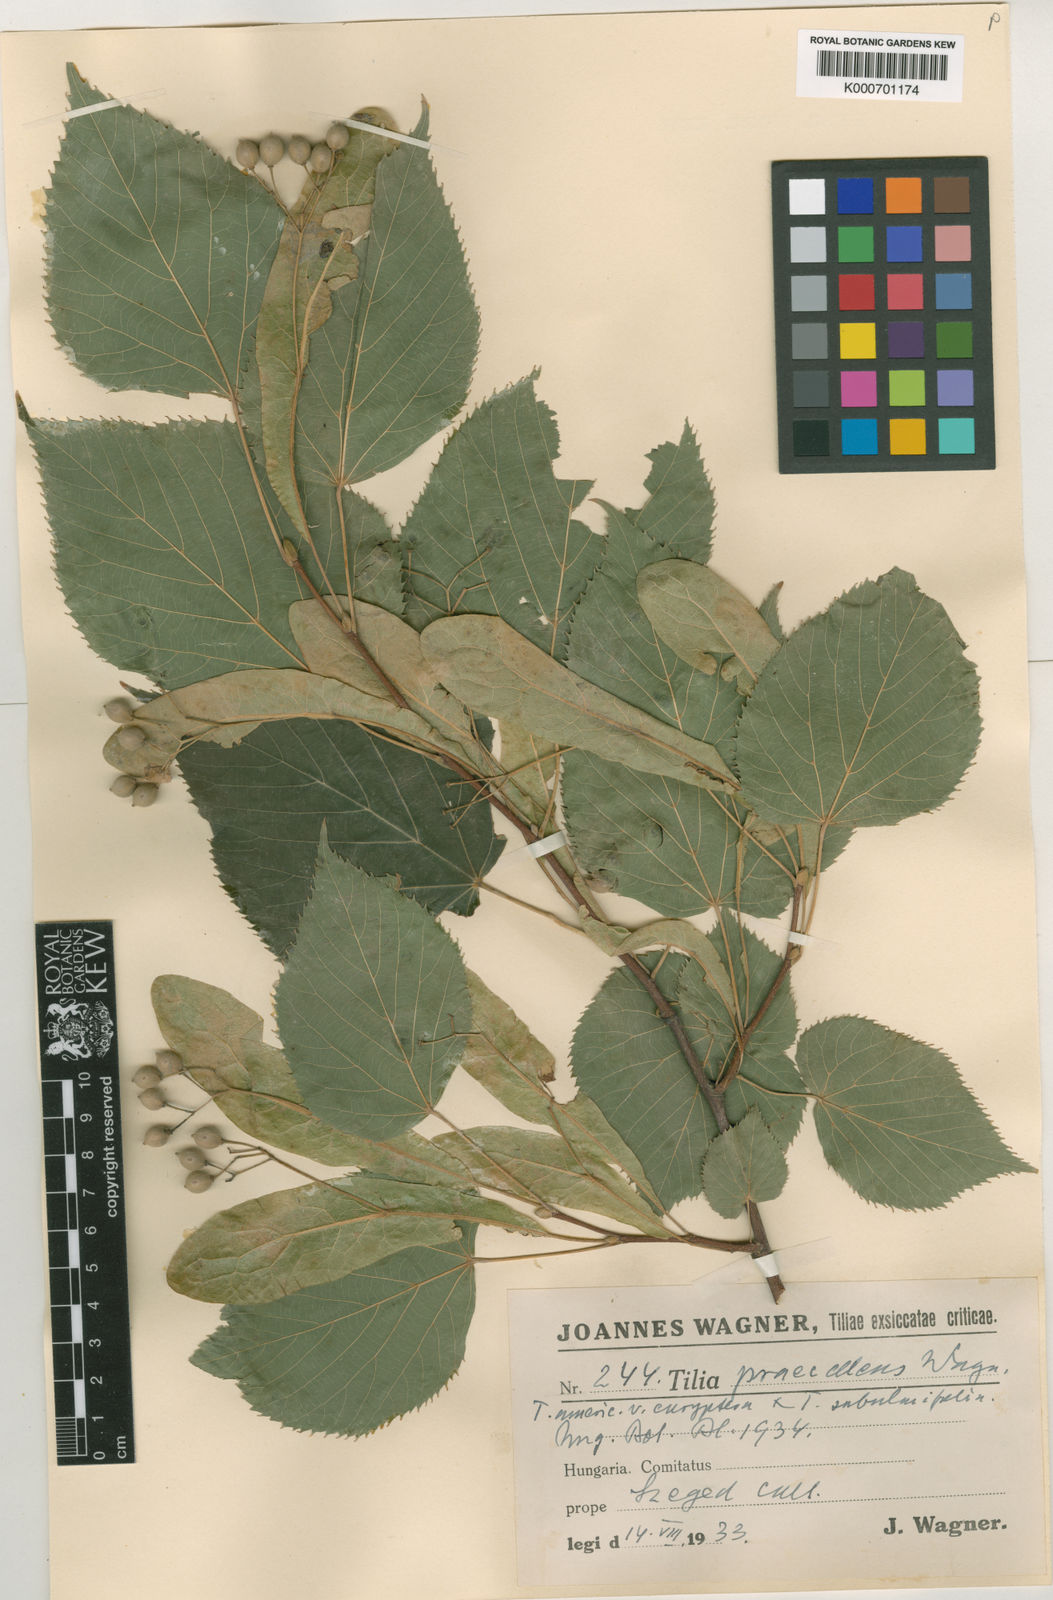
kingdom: Plantae
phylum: Tracheophyta
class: Magnoliopsida
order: Malvales
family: Malvaceae
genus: Tilia
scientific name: Tilia platyphyllos
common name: Large-leaved lime
